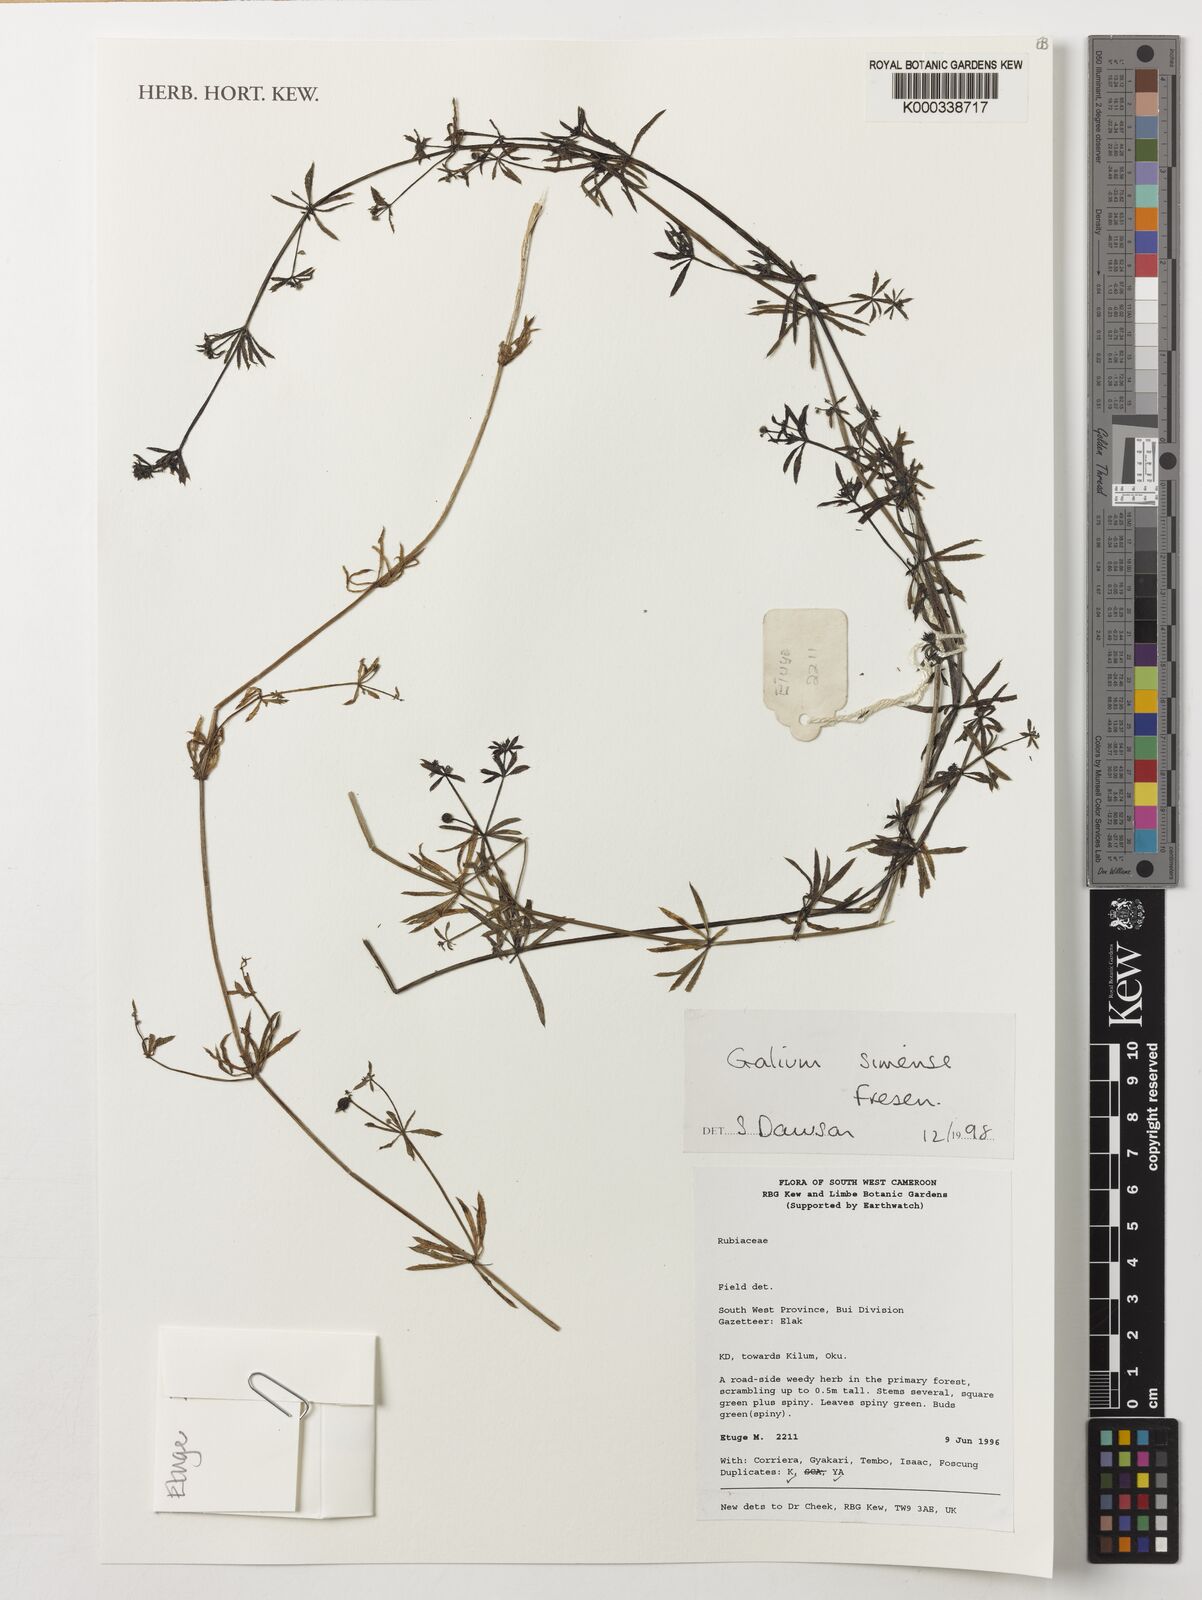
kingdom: Plantae
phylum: Tracheophyta
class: Magnoliopsida
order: Gentianales
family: Rubiaceae
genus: Galium
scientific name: Galium simense
